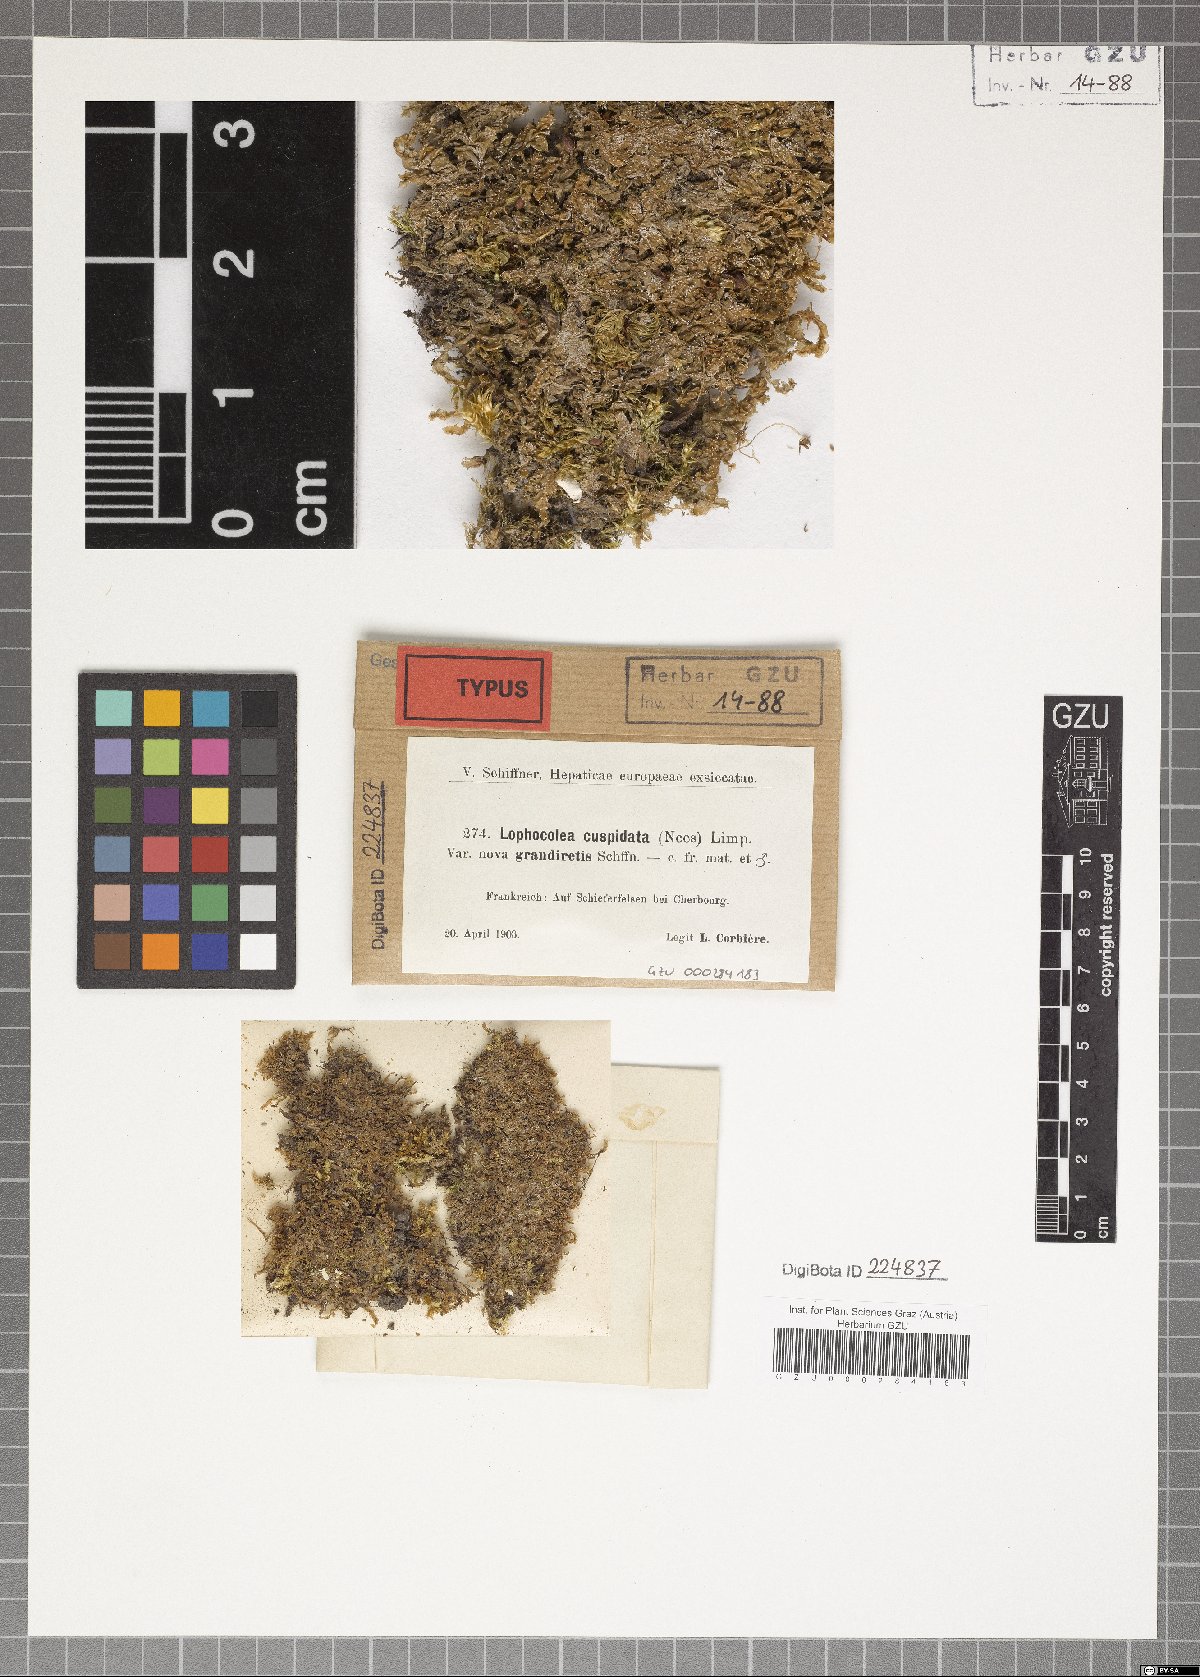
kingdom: Plantae
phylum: Marchantiophyta
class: Jungermanniopsida
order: Jungermanniales
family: Lophocoleaceae
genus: Lophocolea
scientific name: Lophocolea bidentata
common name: Bifid crestwort
